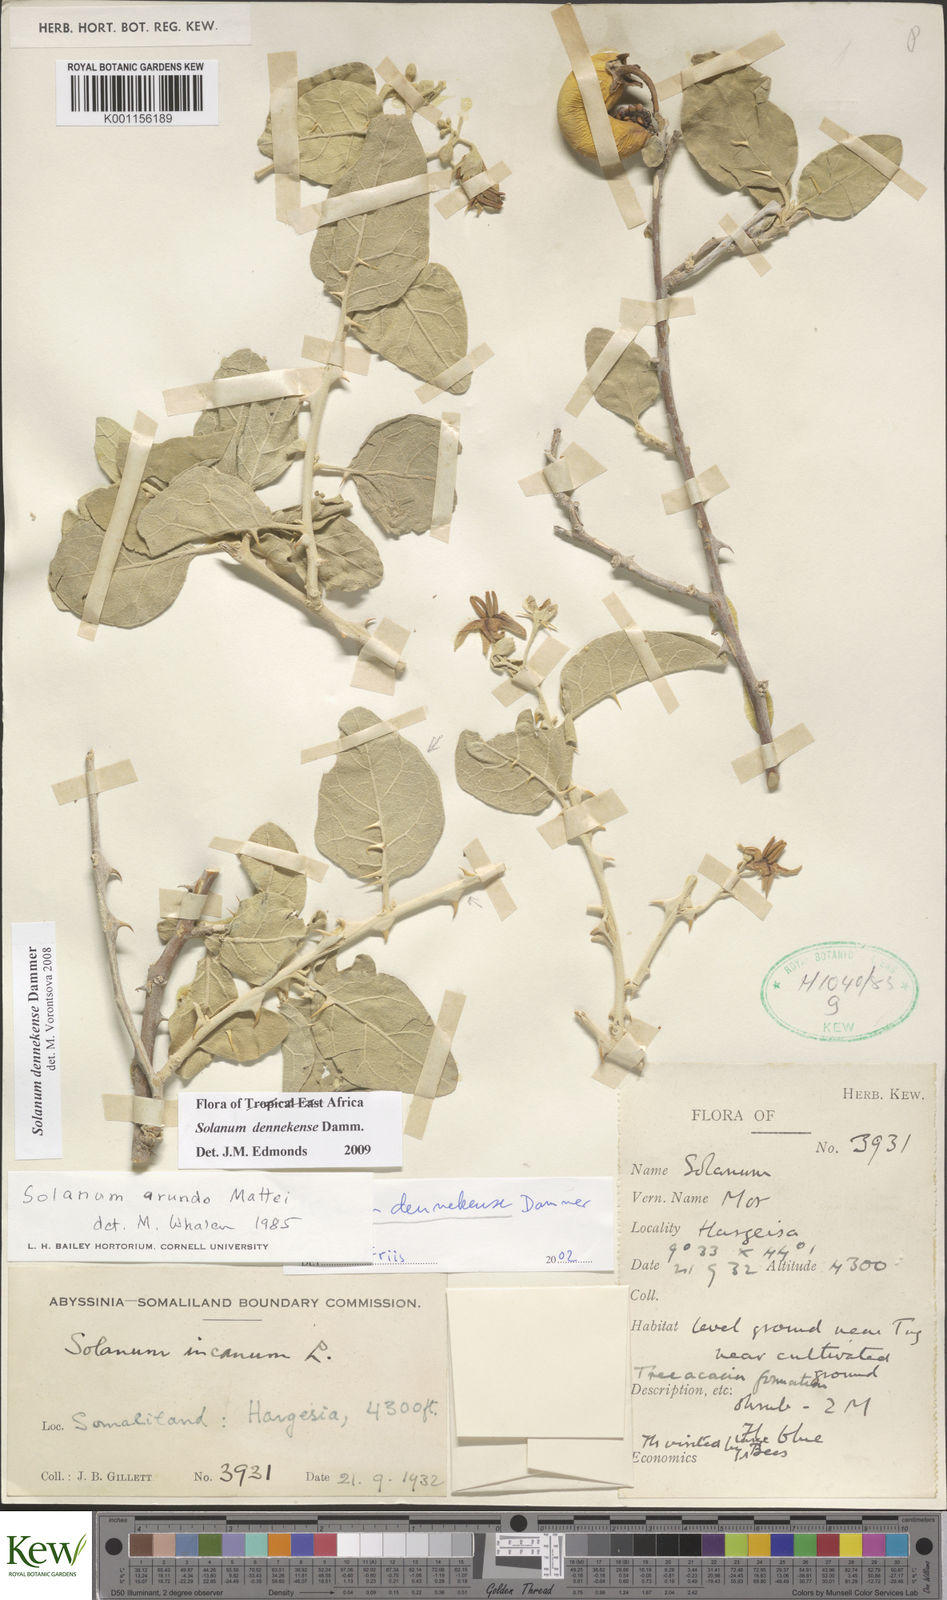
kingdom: Plantae
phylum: Tracheophyta
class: Magnoliopsida
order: Solanales
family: Solanaceae
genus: Solanum
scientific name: Solanum dennekense
